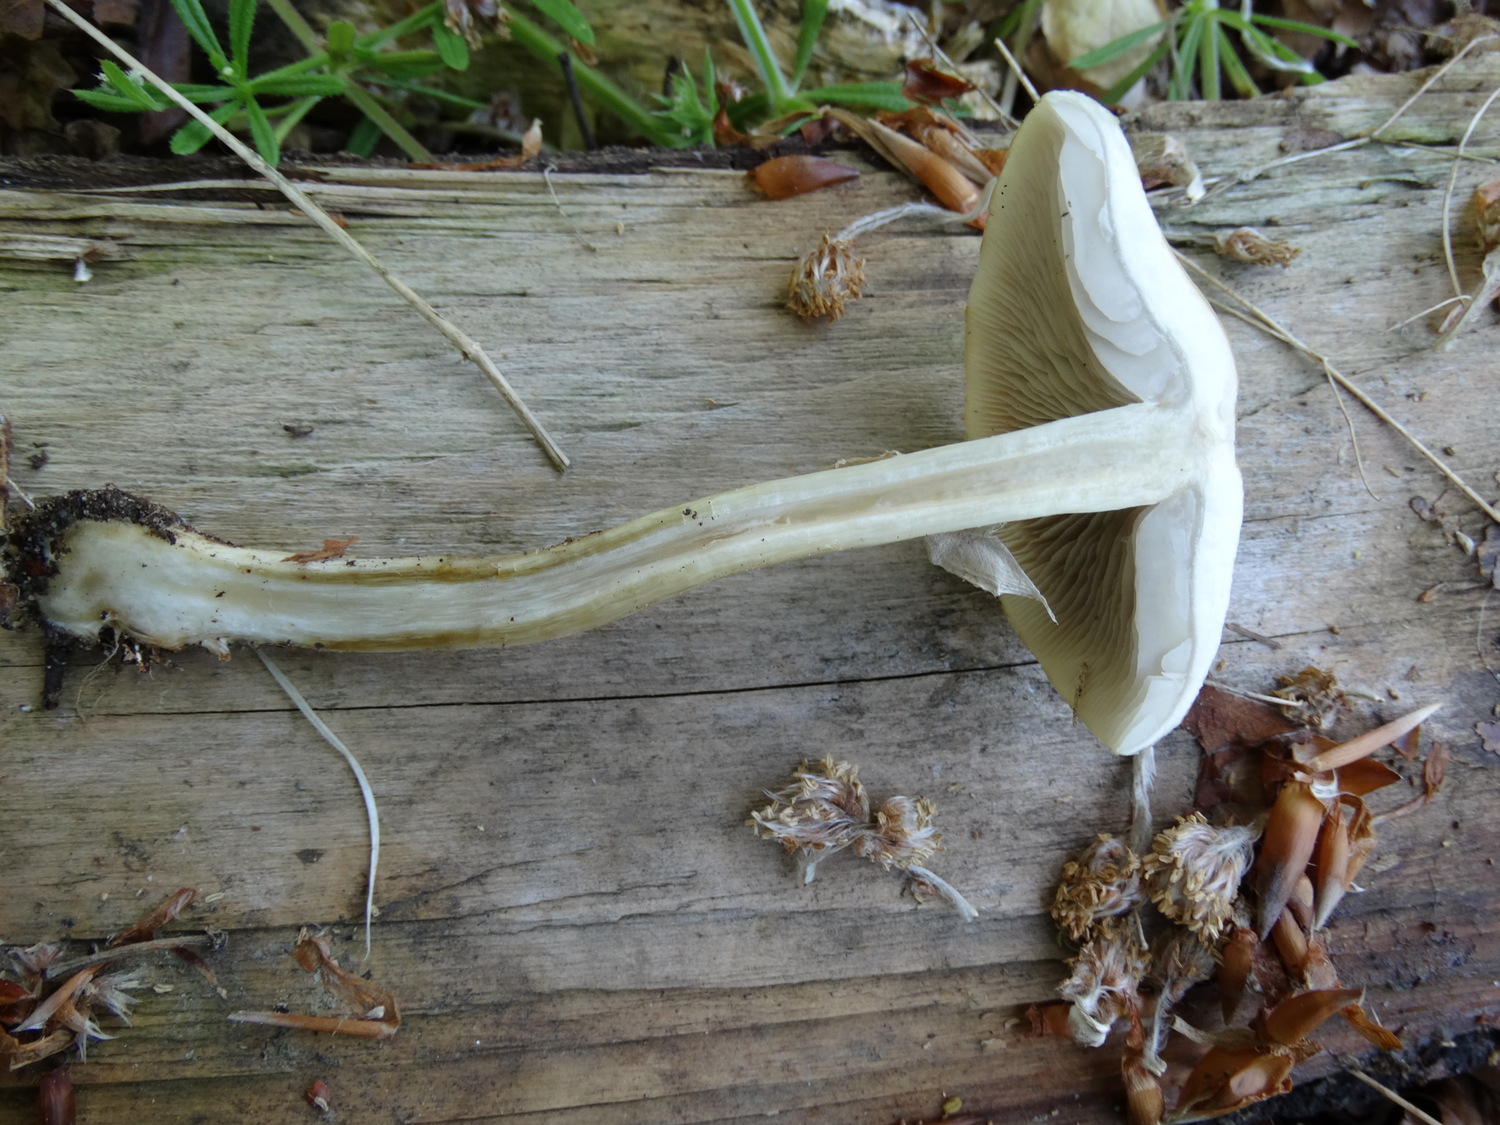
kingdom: Fungi
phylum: Basidiomycota
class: Agaricomycetes
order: Agaricales
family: Strophariaceae
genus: Agrocybe
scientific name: Agrocybe praecox
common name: tidlig agerhat
